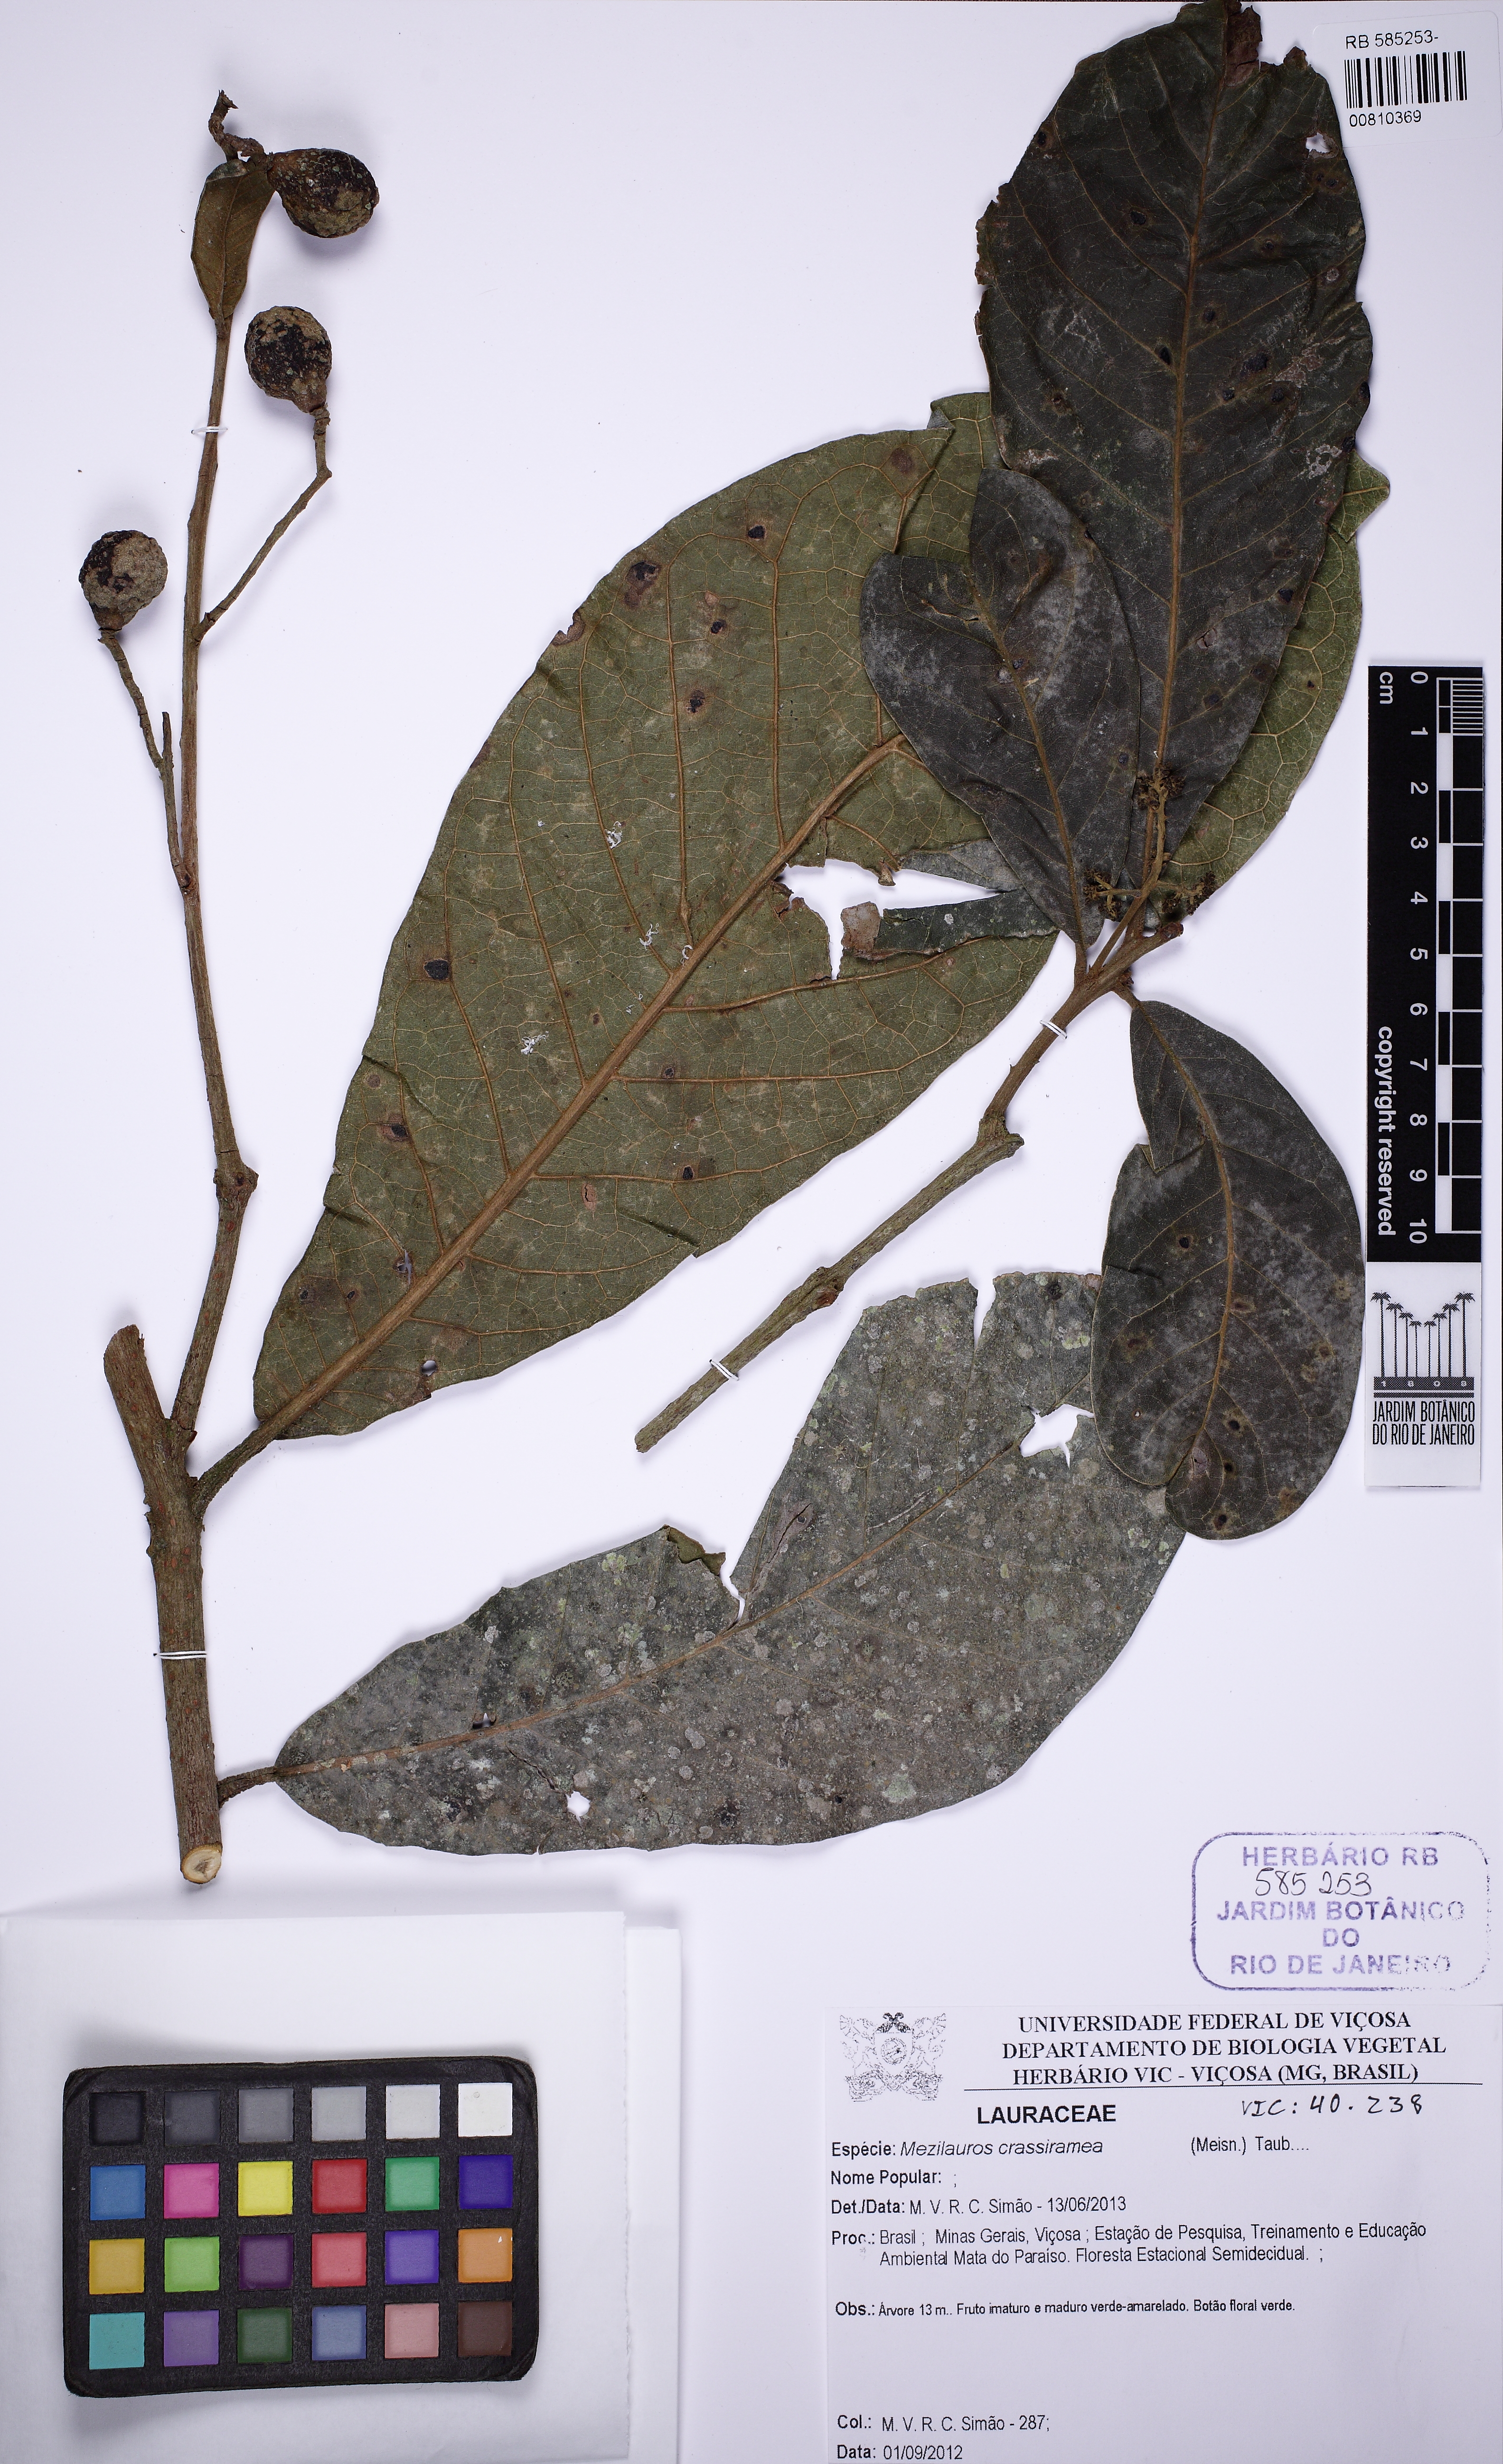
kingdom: Plantae
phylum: Tracheophyta
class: Magnoliopsida
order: Lamiales
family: Oleaceae
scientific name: Oleaceae
